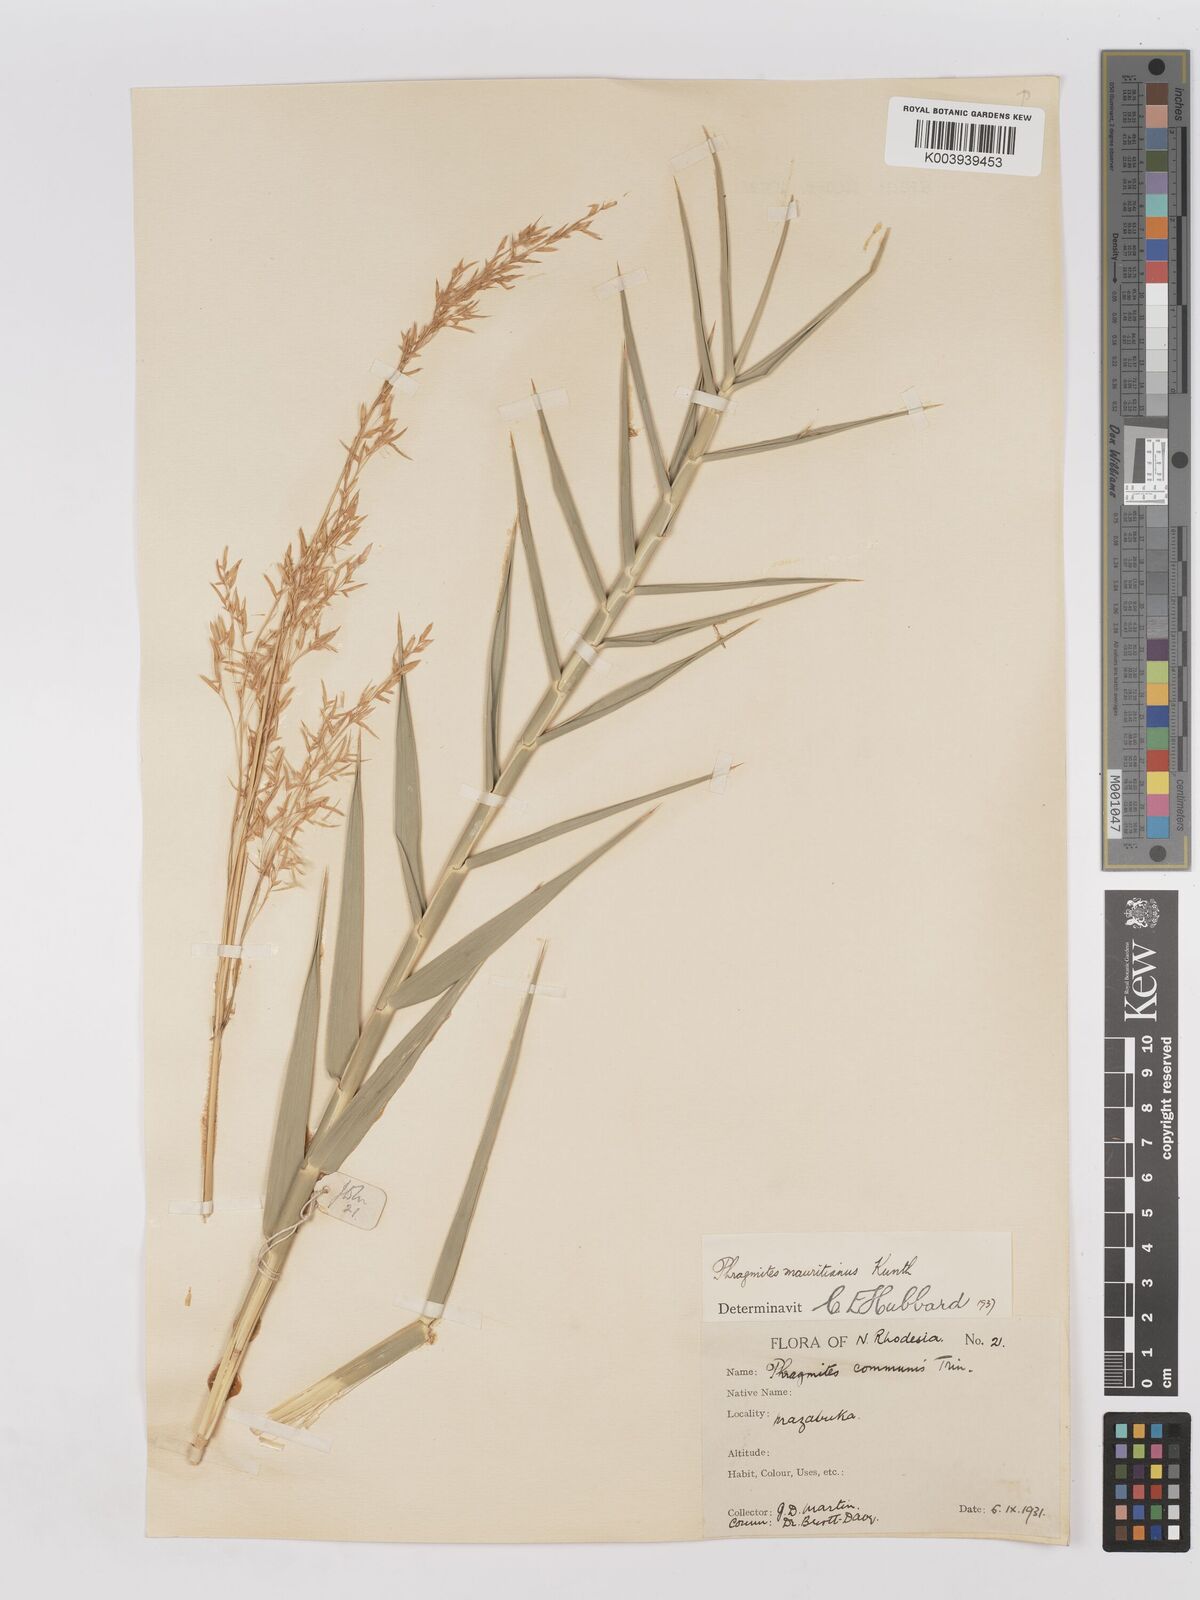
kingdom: Plantae
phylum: Tracheophyta
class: Liliopsida
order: Poales
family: Poaceae
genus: Phragmites
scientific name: Phragmites mauritianus
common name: Reed grass
